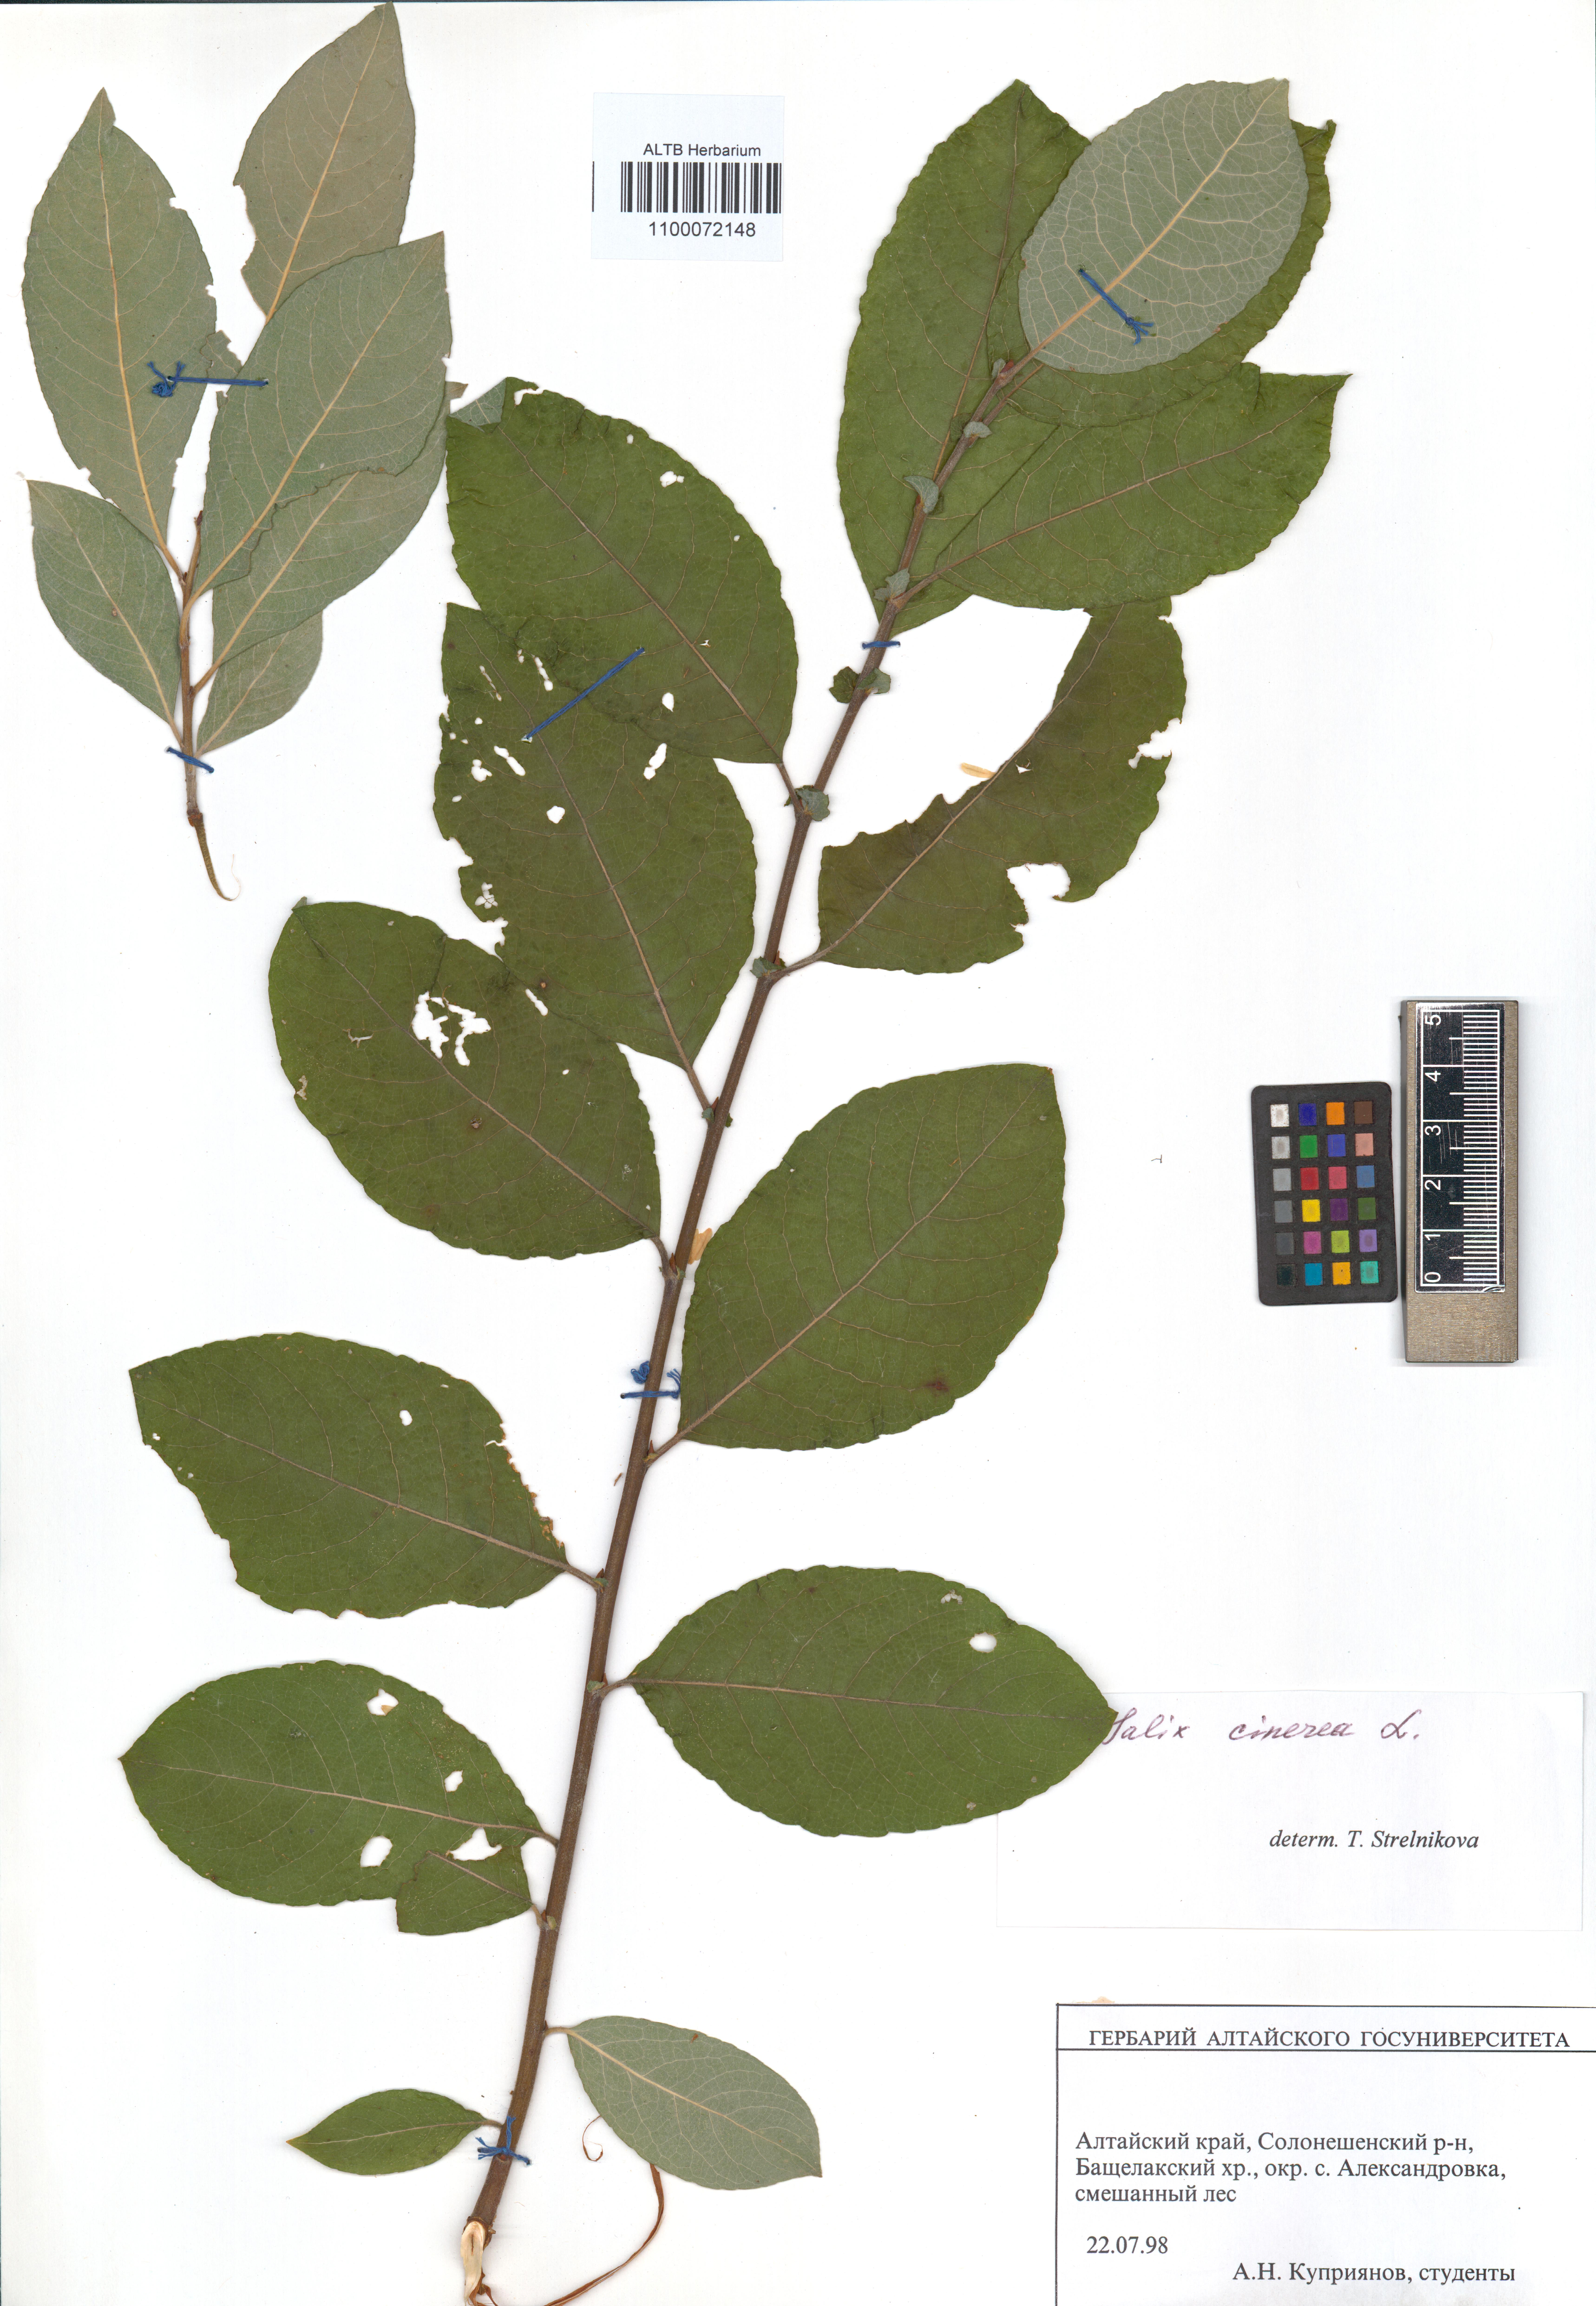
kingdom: Plantae
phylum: Tracheophyta
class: Magnoliopsida
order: Malpighiales
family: Salicaceae
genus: Salix
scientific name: Salix cinerea
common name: Common sallow
